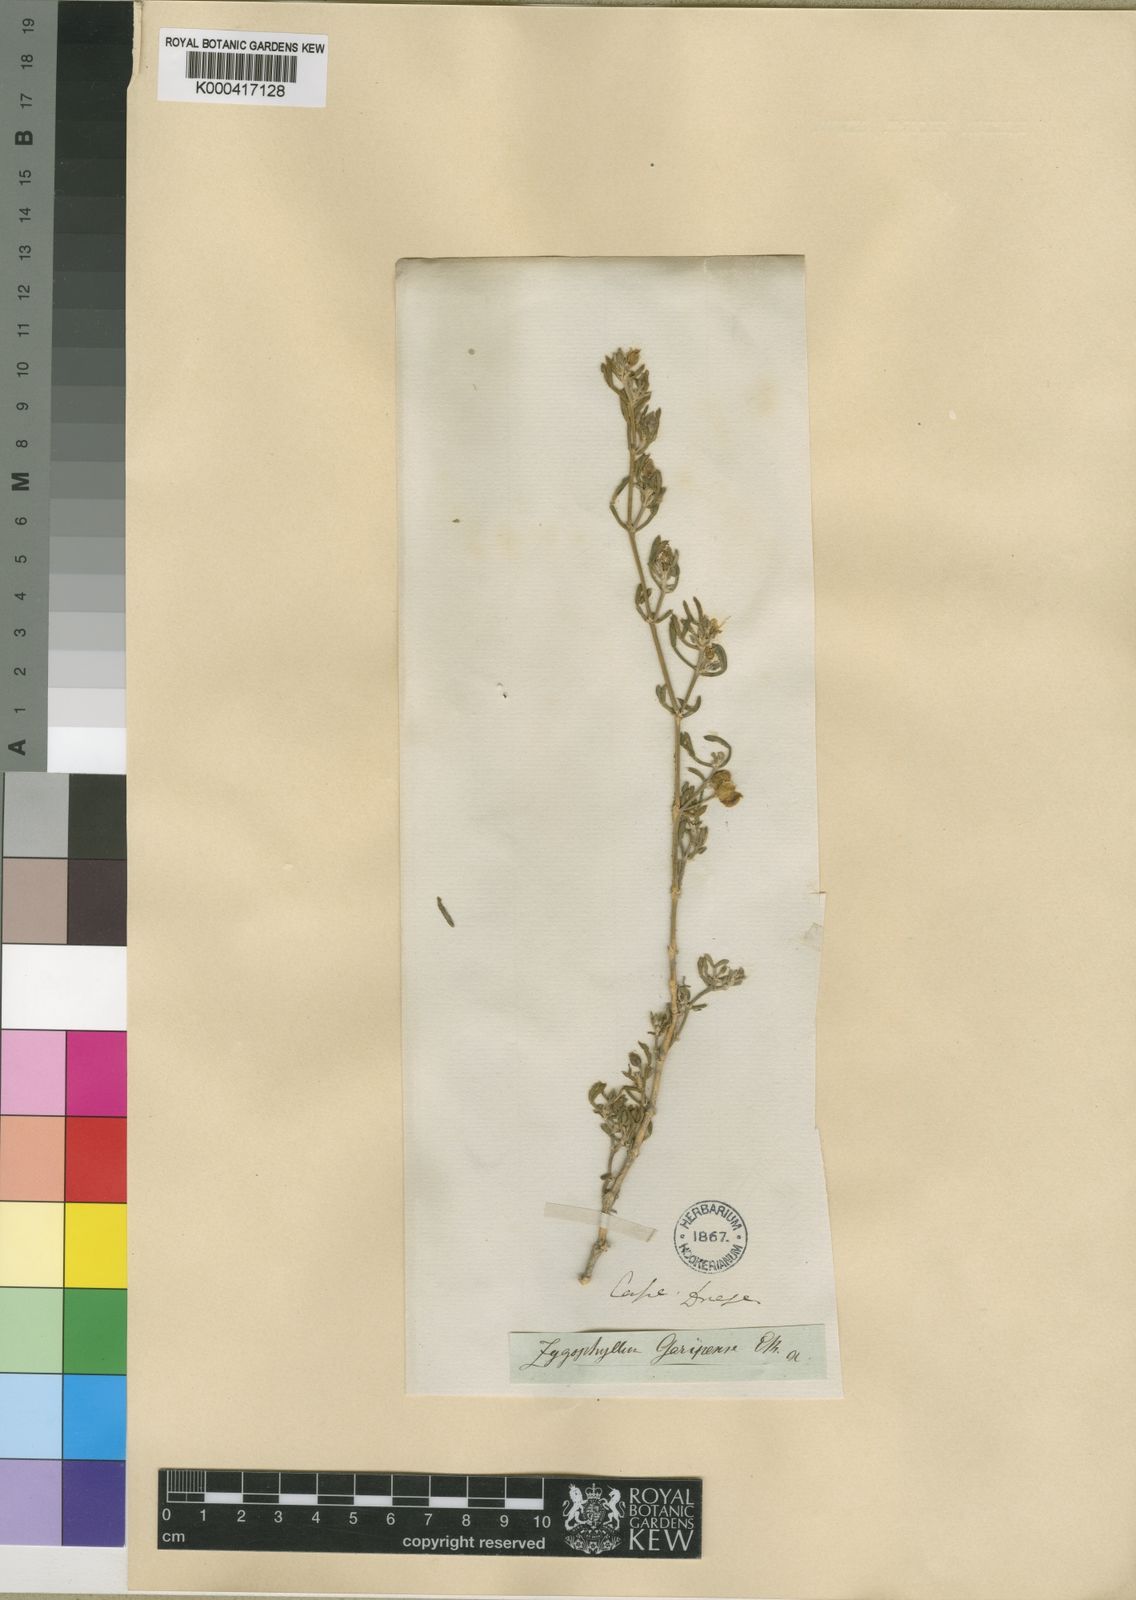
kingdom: Plantae
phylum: Tracheophyta
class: Magnoliopsida
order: Zygophyllales
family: Zygophyllaceae
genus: Tetraena
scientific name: Tetraena microcarpa
